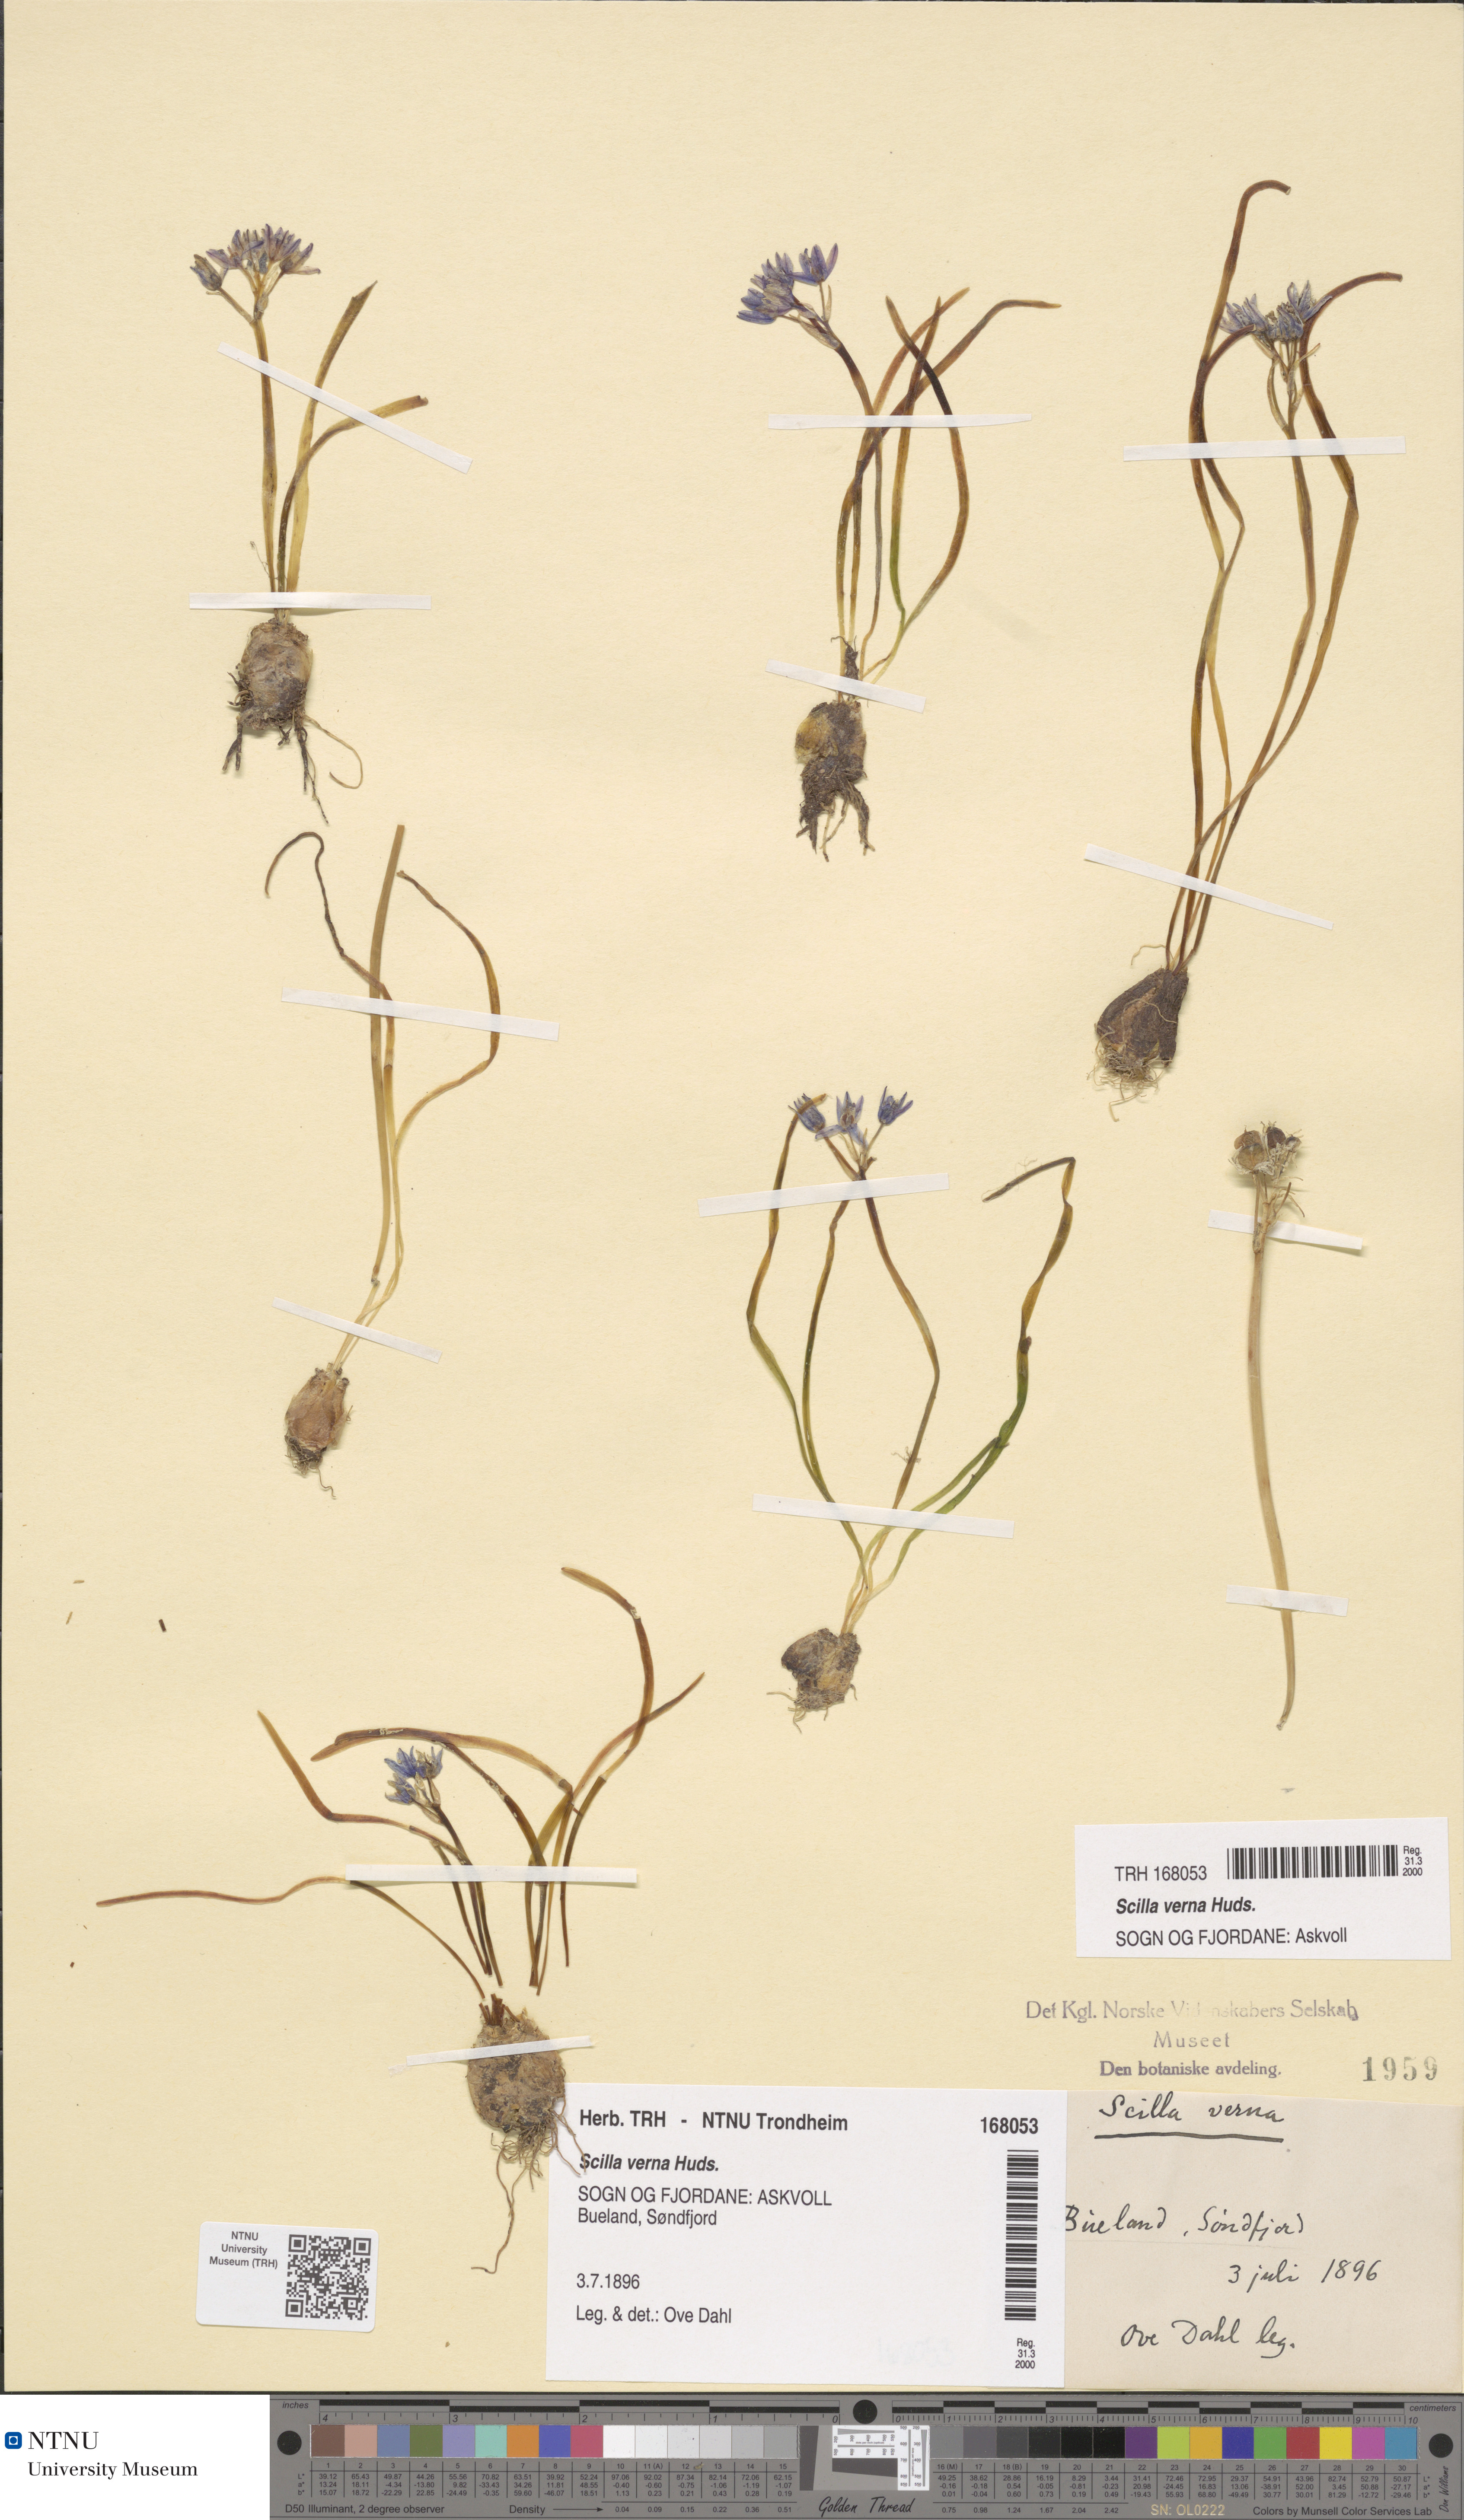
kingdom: Plantae
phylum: Tracheophyta
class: Liliopsida
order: Asparagales
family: Asparagaceae
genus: Scilla
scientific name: Scilla verna
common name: Spring squill
